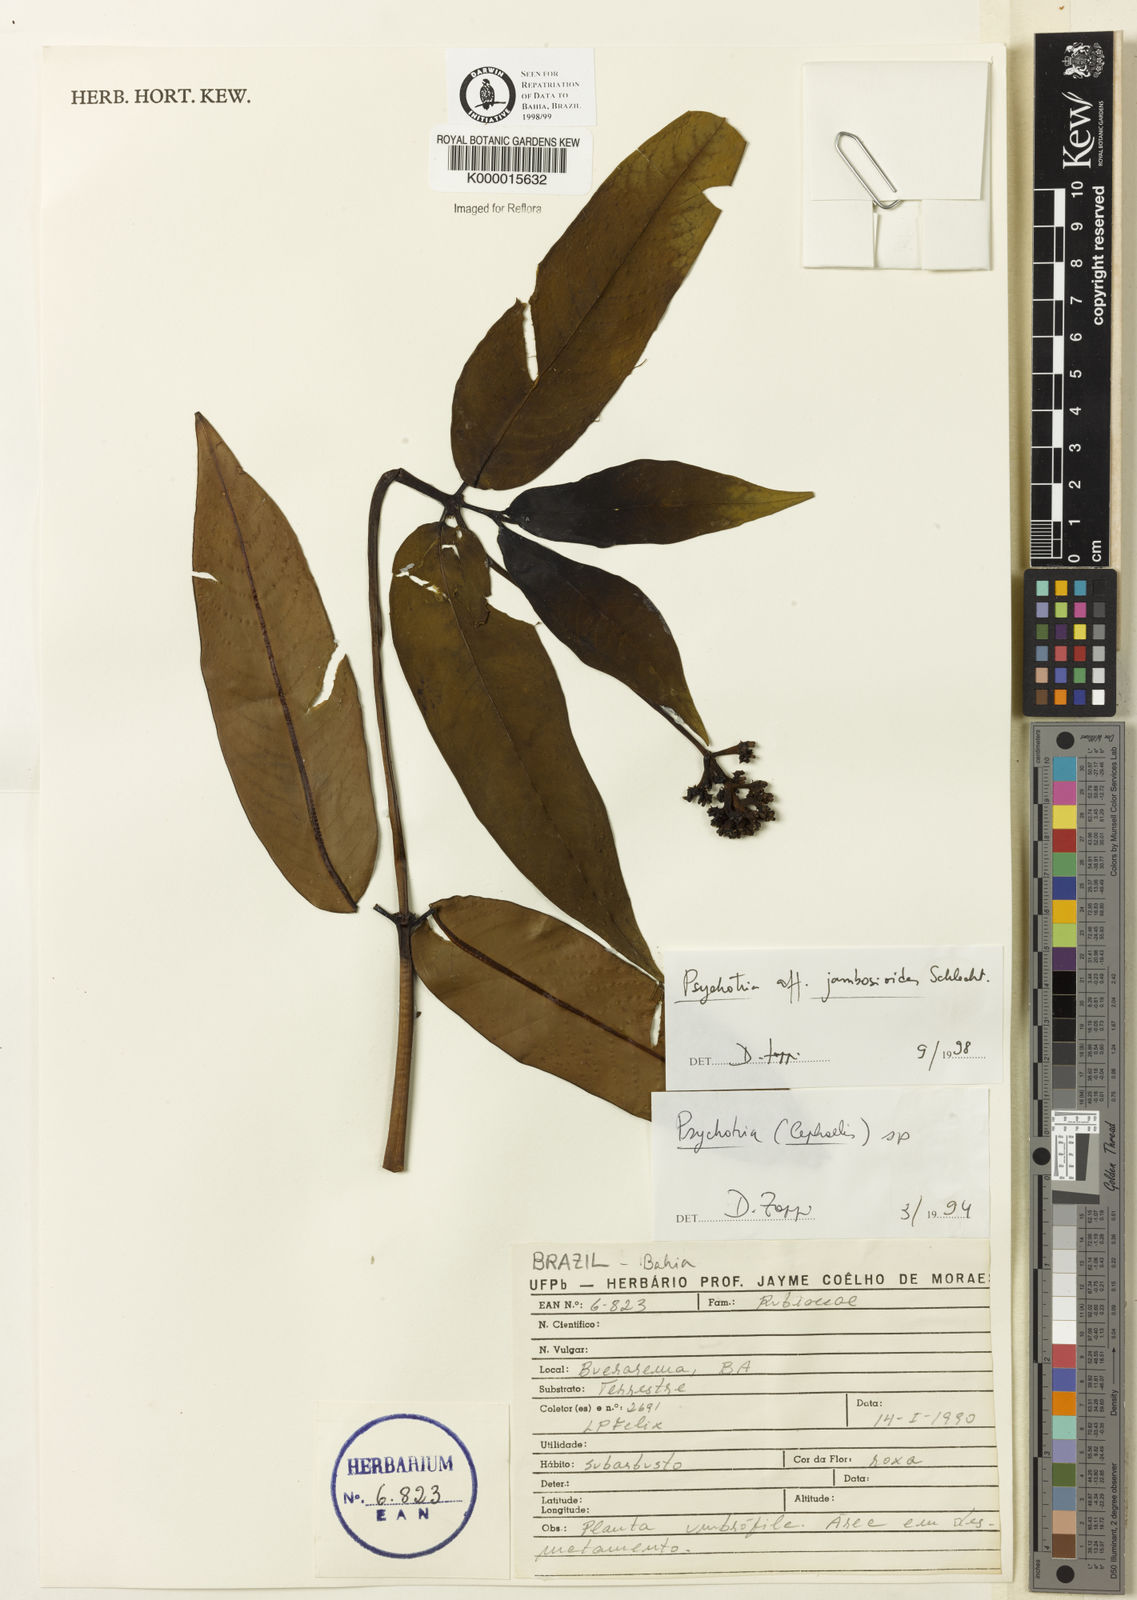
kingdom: Plantae
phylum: Tracheophyta
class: Magnoliopsida
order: Gentianales
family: Rubiaceae
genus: Palicourea
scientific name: Palicourea jambosioides
